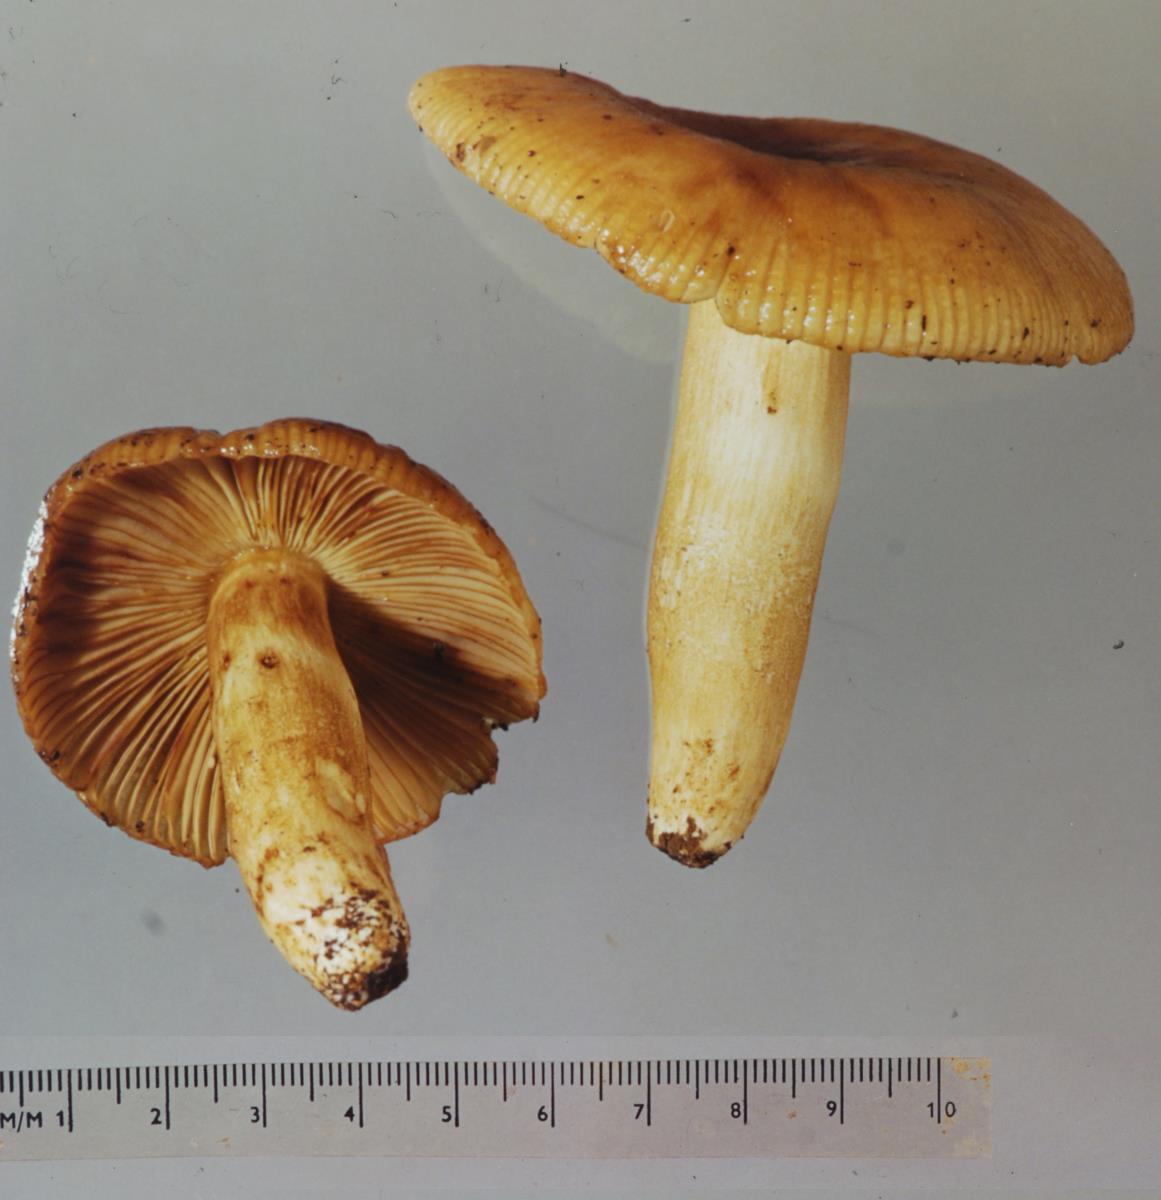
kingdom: Fungi
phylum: Basidiomycota
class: Agaricomycetes
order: Russulales
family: Russulaceae
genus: Russula
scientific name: Russula novae-zelandiae
